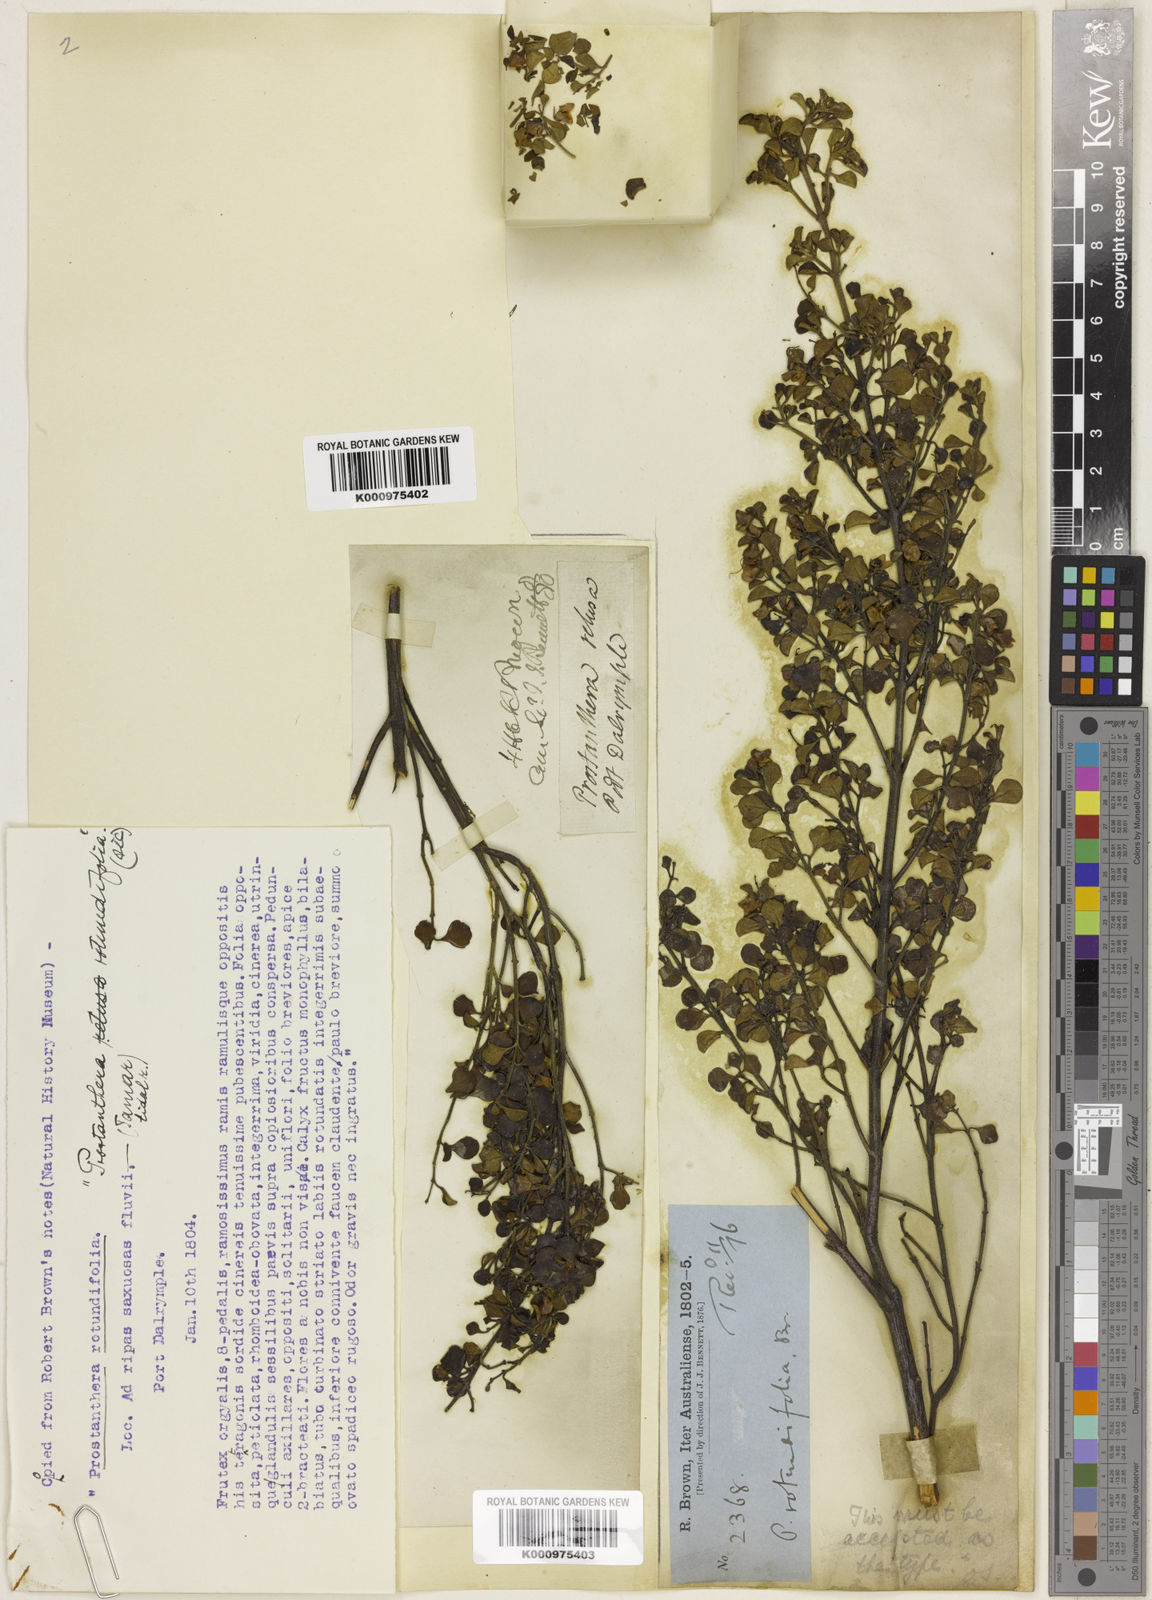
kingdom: Plantae
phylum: Tracheophyta
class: Magnoliopsida
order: Lamiales
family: Lamiaceae
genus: Prostanthera
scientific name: Prostanthera rotundifolia
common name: Round-leaf mintbush
